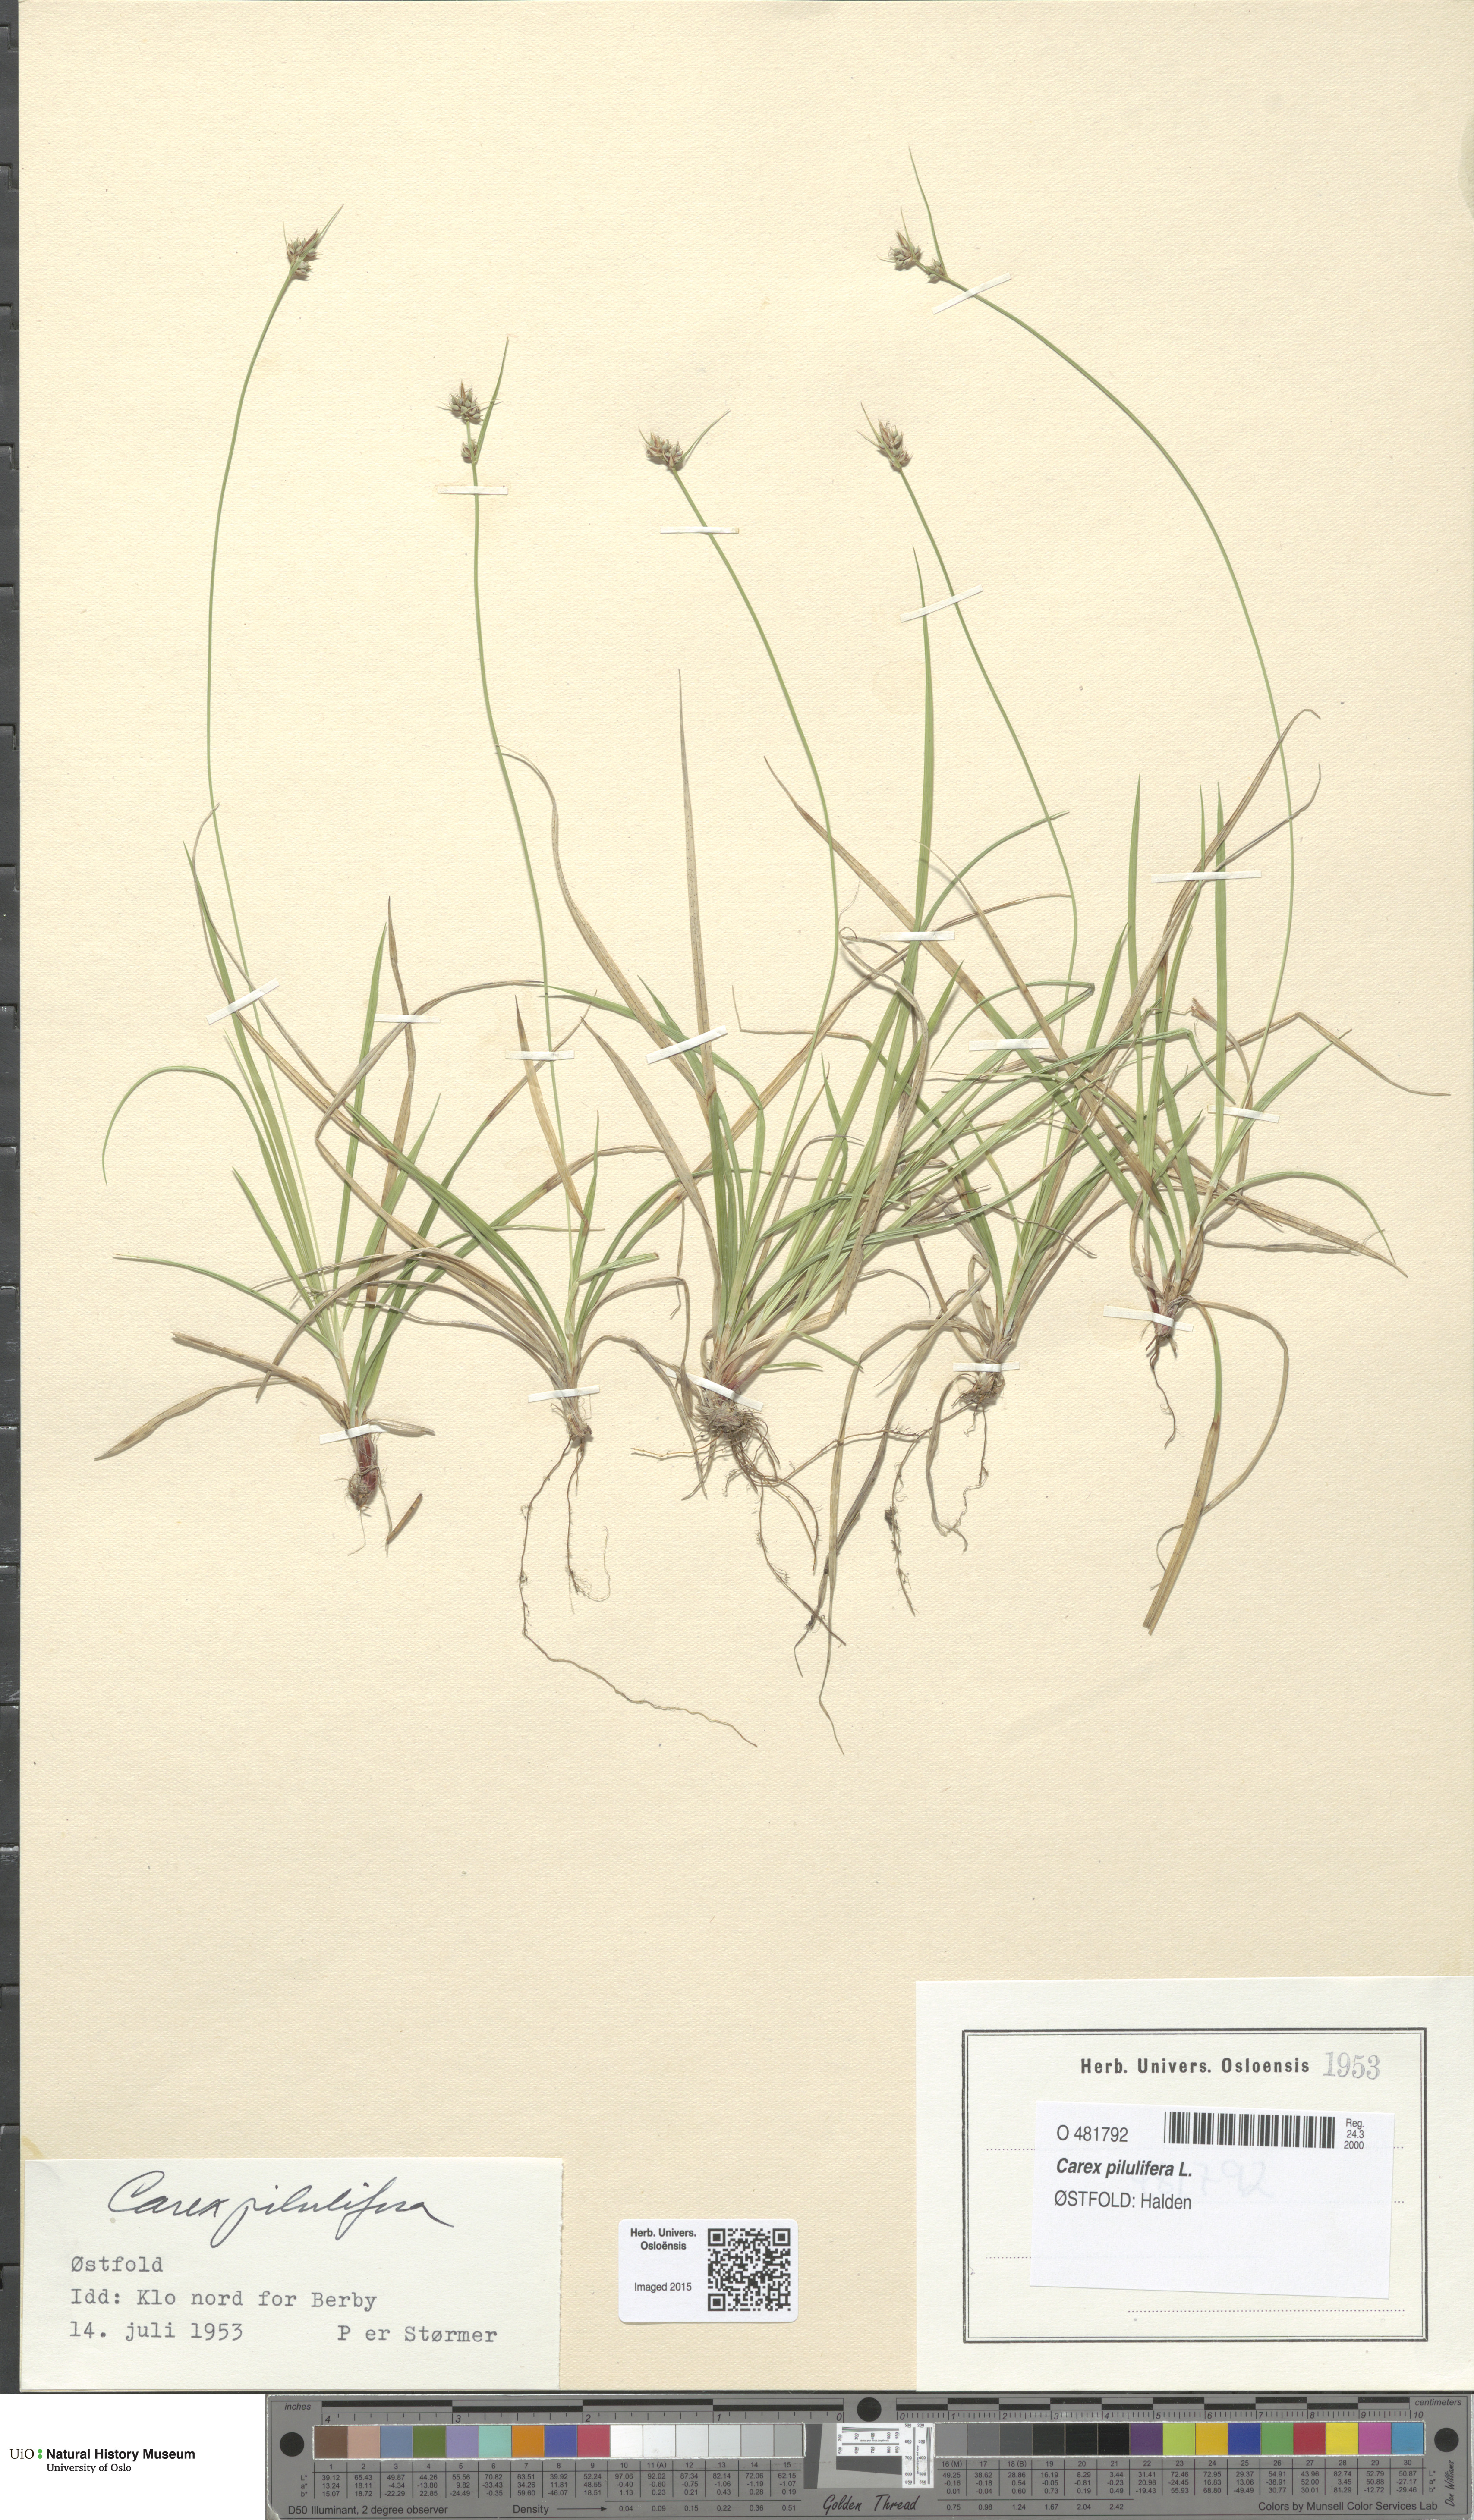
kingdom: Plantae
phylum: Tracheophyta
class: Liliopsida
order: Poales
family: Cyperaceae
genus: Carex
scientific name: Carex pilulifera
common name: Pill sedge
